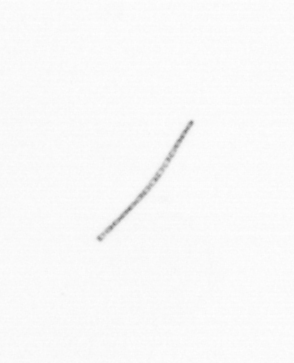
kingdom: Chromista
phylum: Ochrophyta
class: Bacillariophyceae
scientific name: Bacillariophyceae
